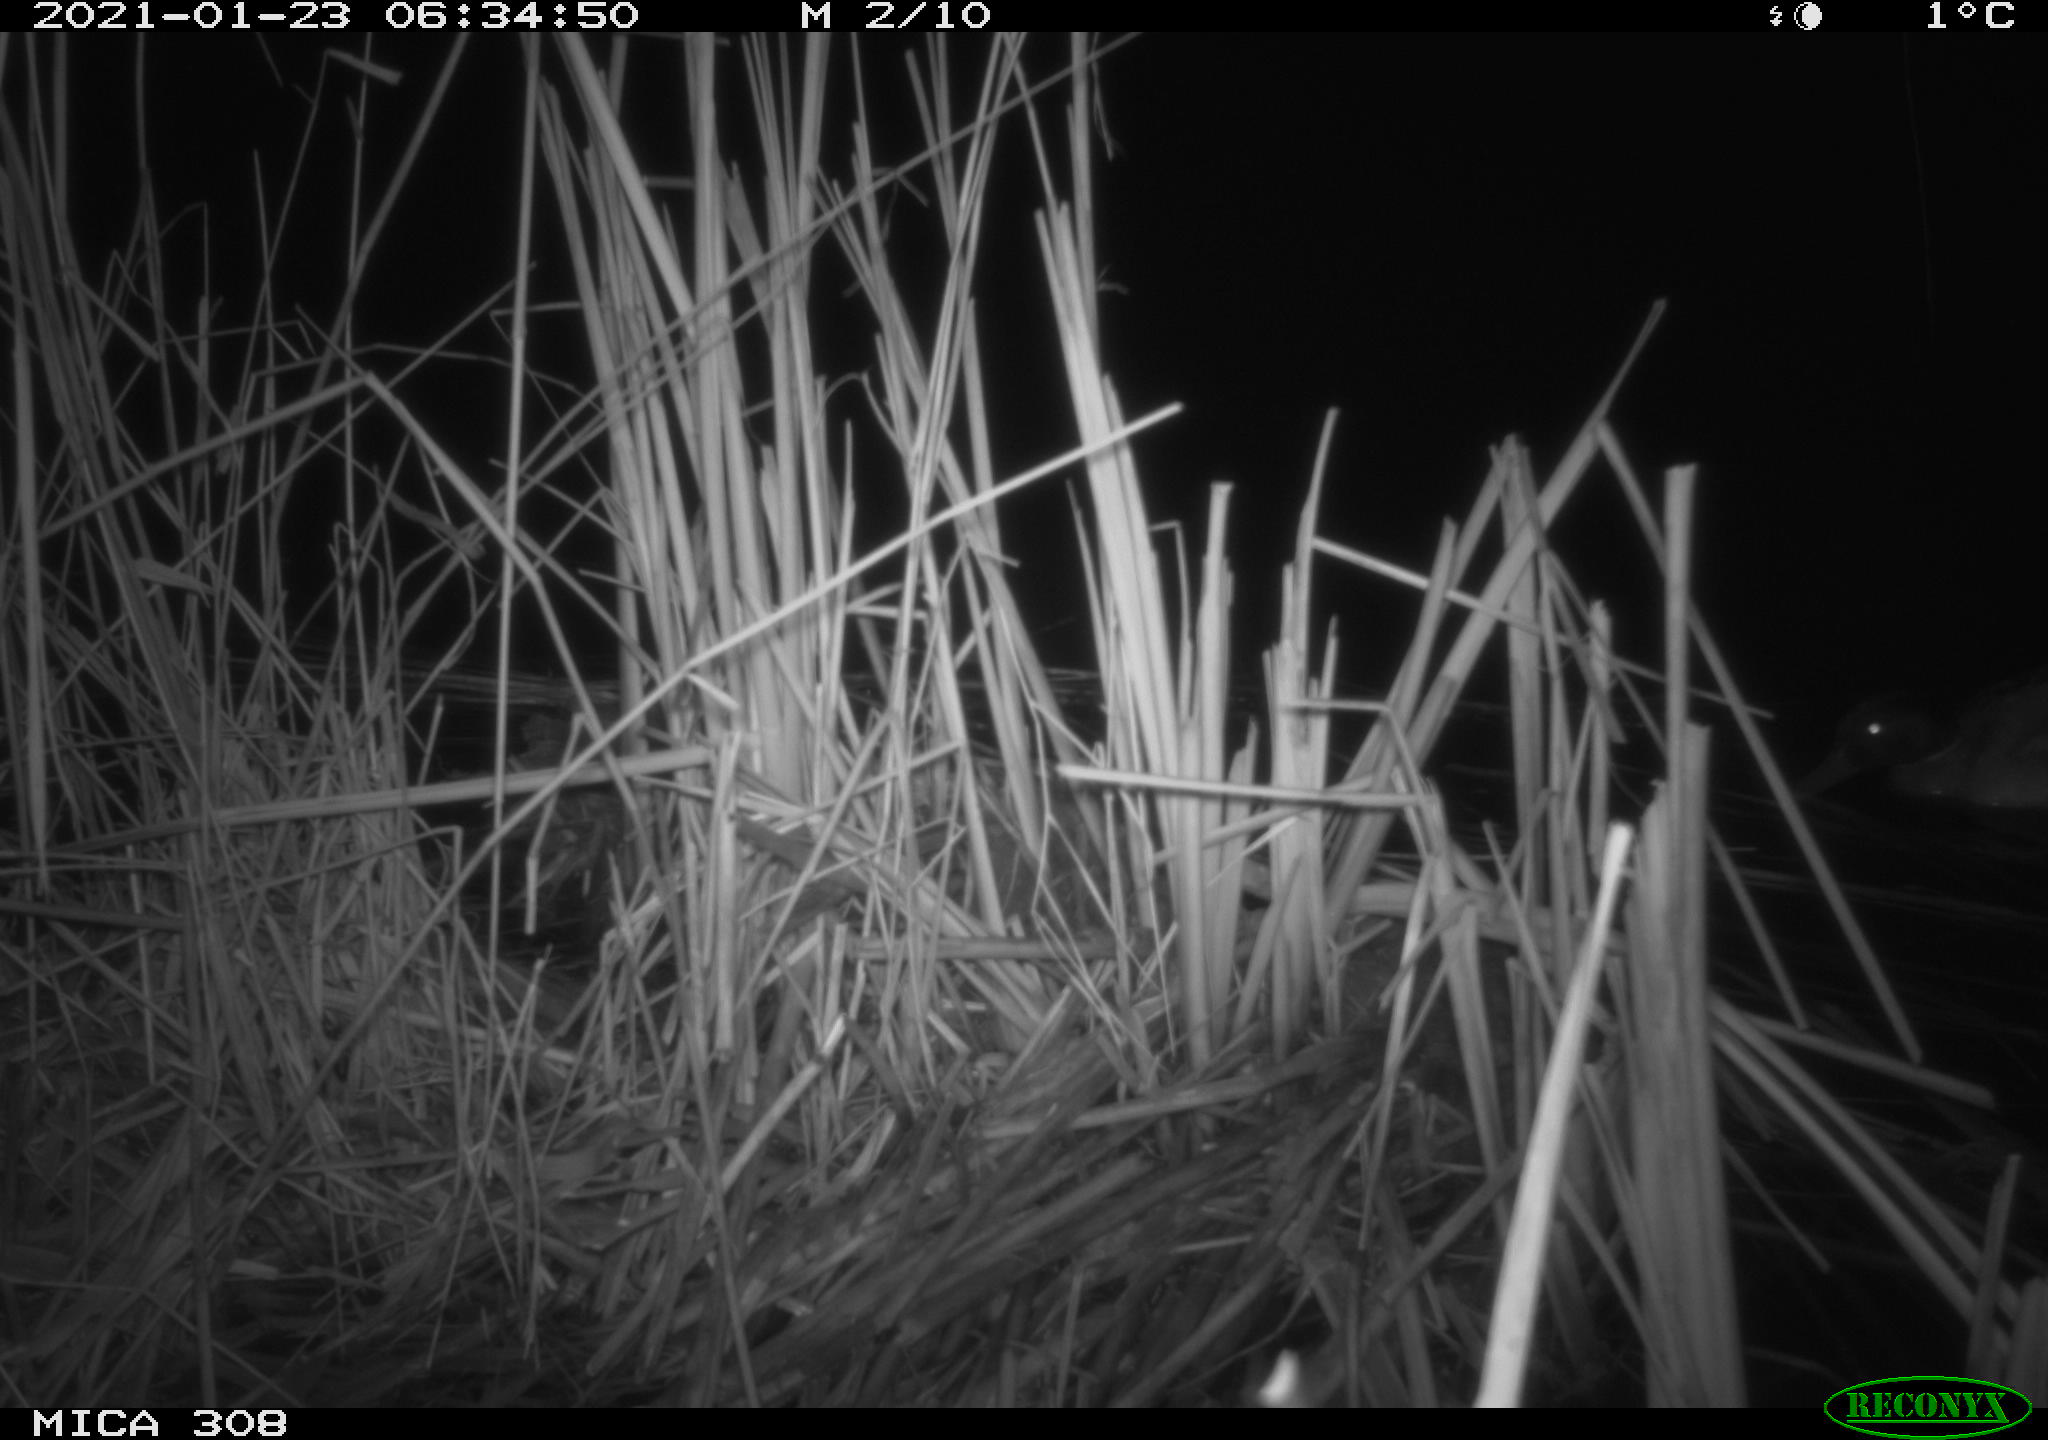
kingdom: Animalia
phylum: Chordata
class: Aves
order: Anseriformes
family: Anatidae
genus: Anas
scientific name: Anas platyrhynchos
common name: Mallard
